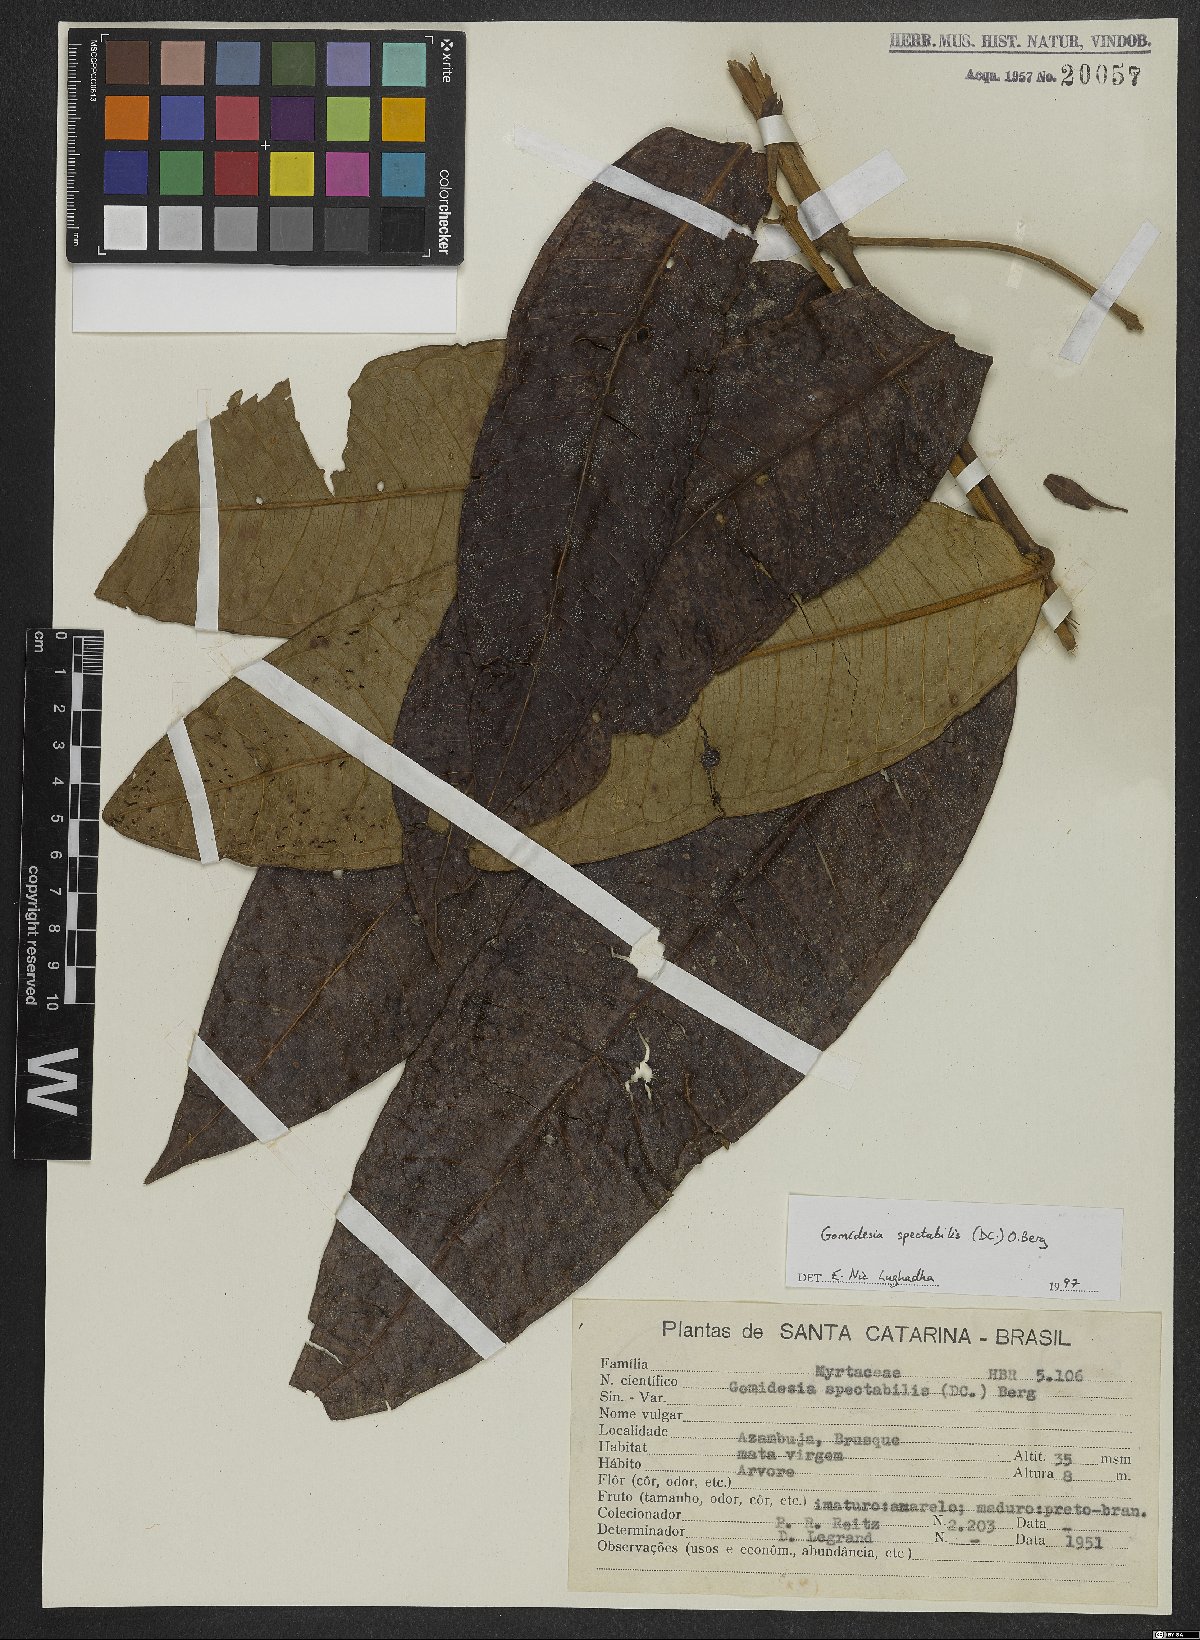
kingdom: Plantae
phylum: Tracheophyta
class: Magnoliopsida
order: Myrtales
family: Myrtaceae
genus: Myrcia
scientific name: Myrcia spectabilis
